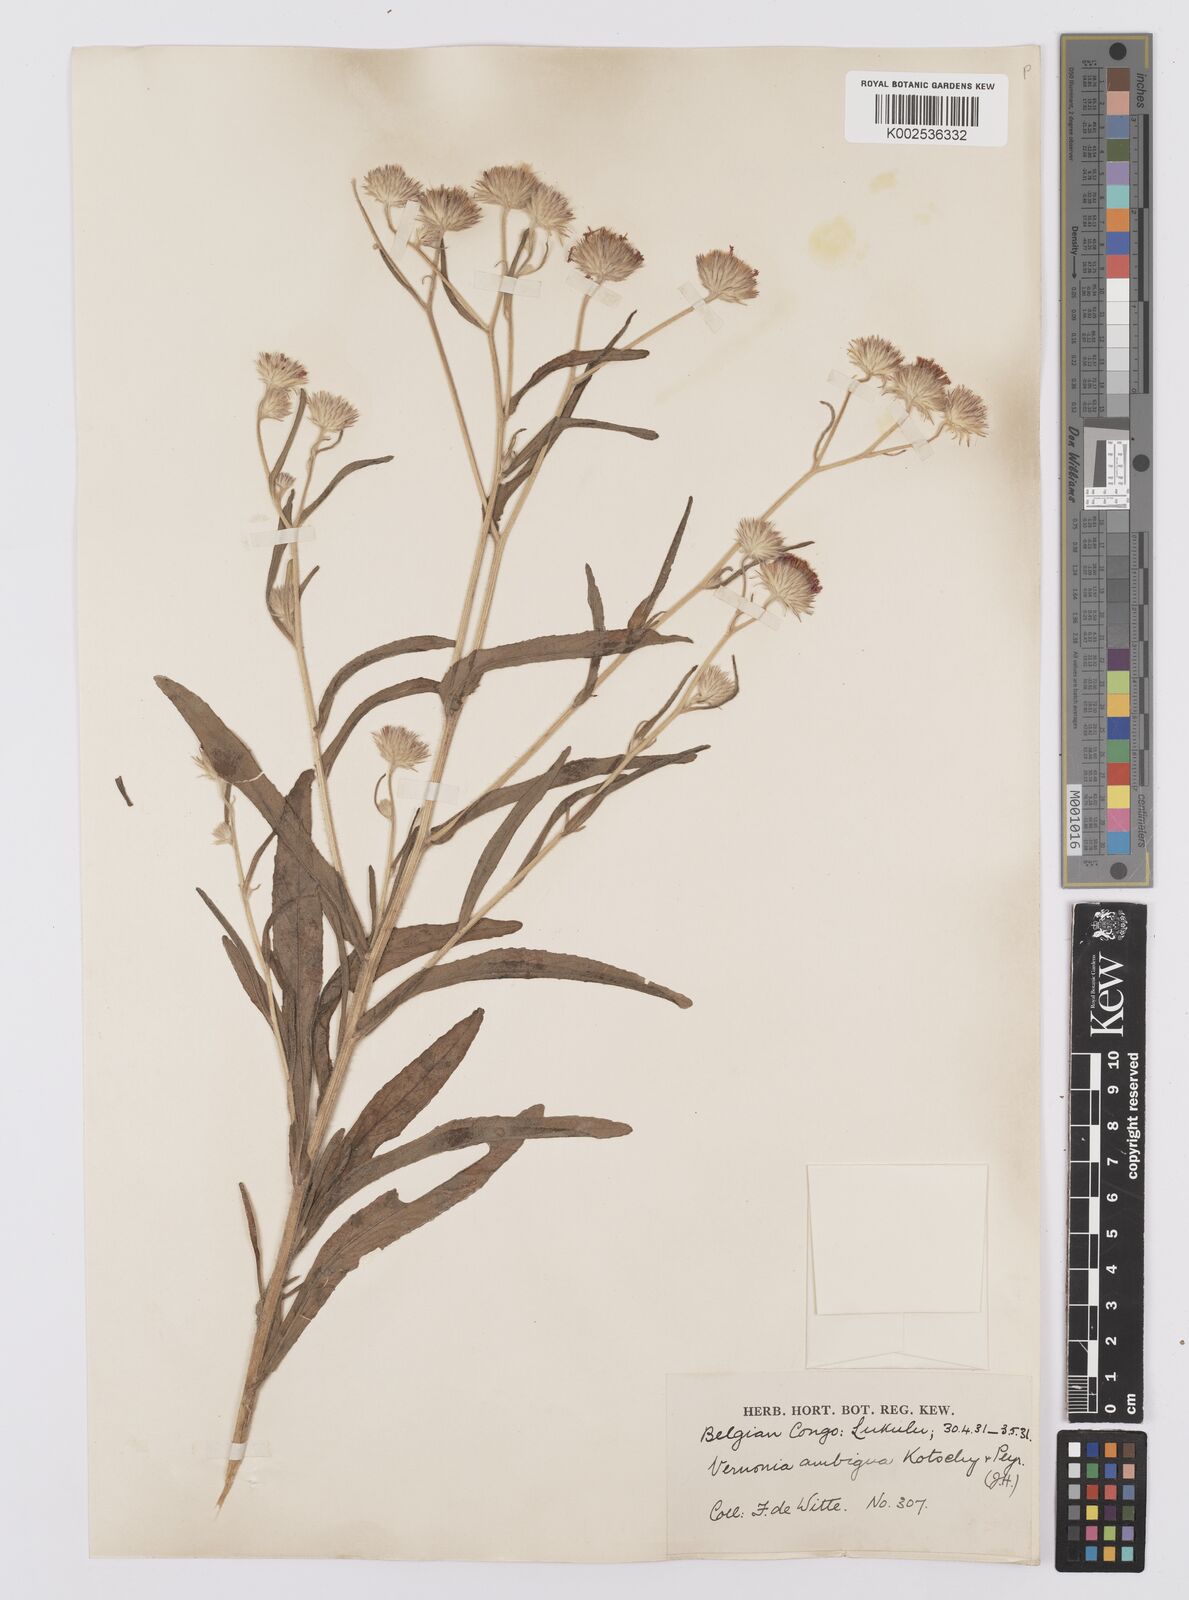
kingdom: Plantae
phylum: Tracheophyta
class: Magnoliopsida
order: Asterales
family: Asteraceae
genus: Vernoniastrum
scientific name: Vernoniastrum ambiguum
